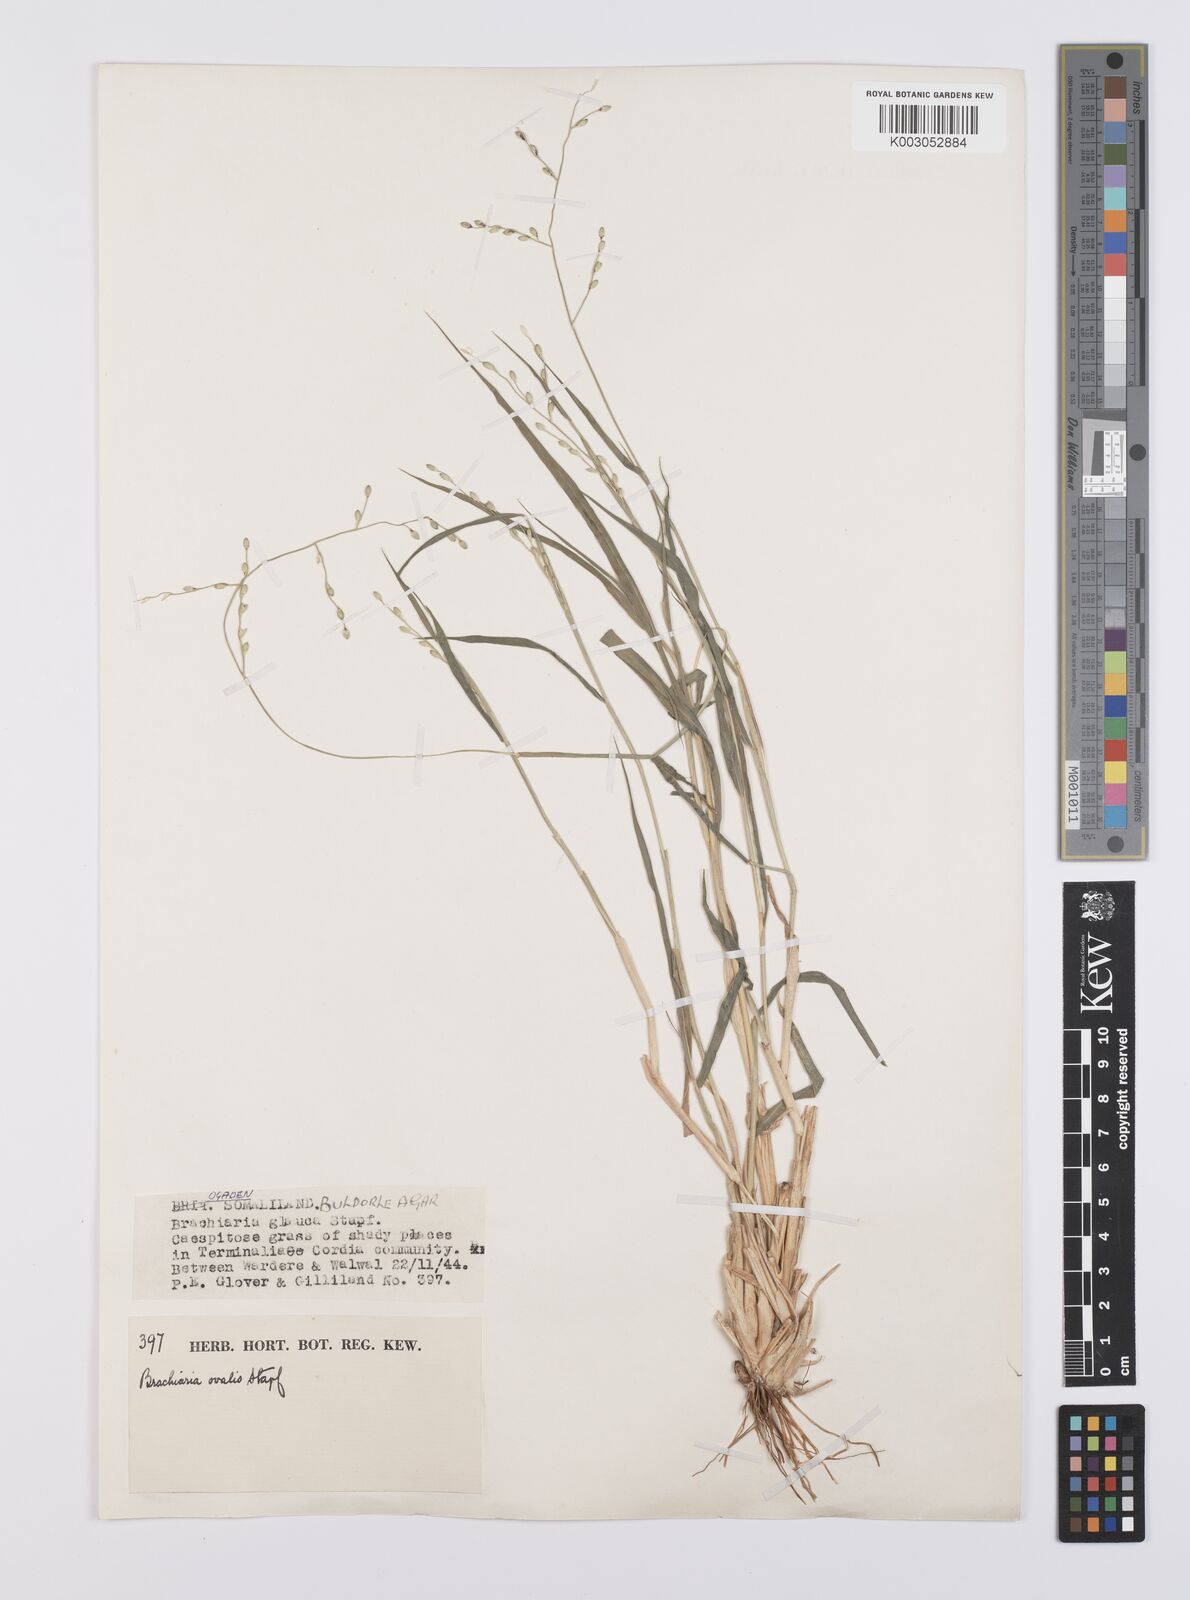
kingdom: Plantae
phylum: Tracheophyta
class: Liliopsida
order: Poales
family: Poaceae
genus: Urochloa
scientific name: Urochloa ovalis
